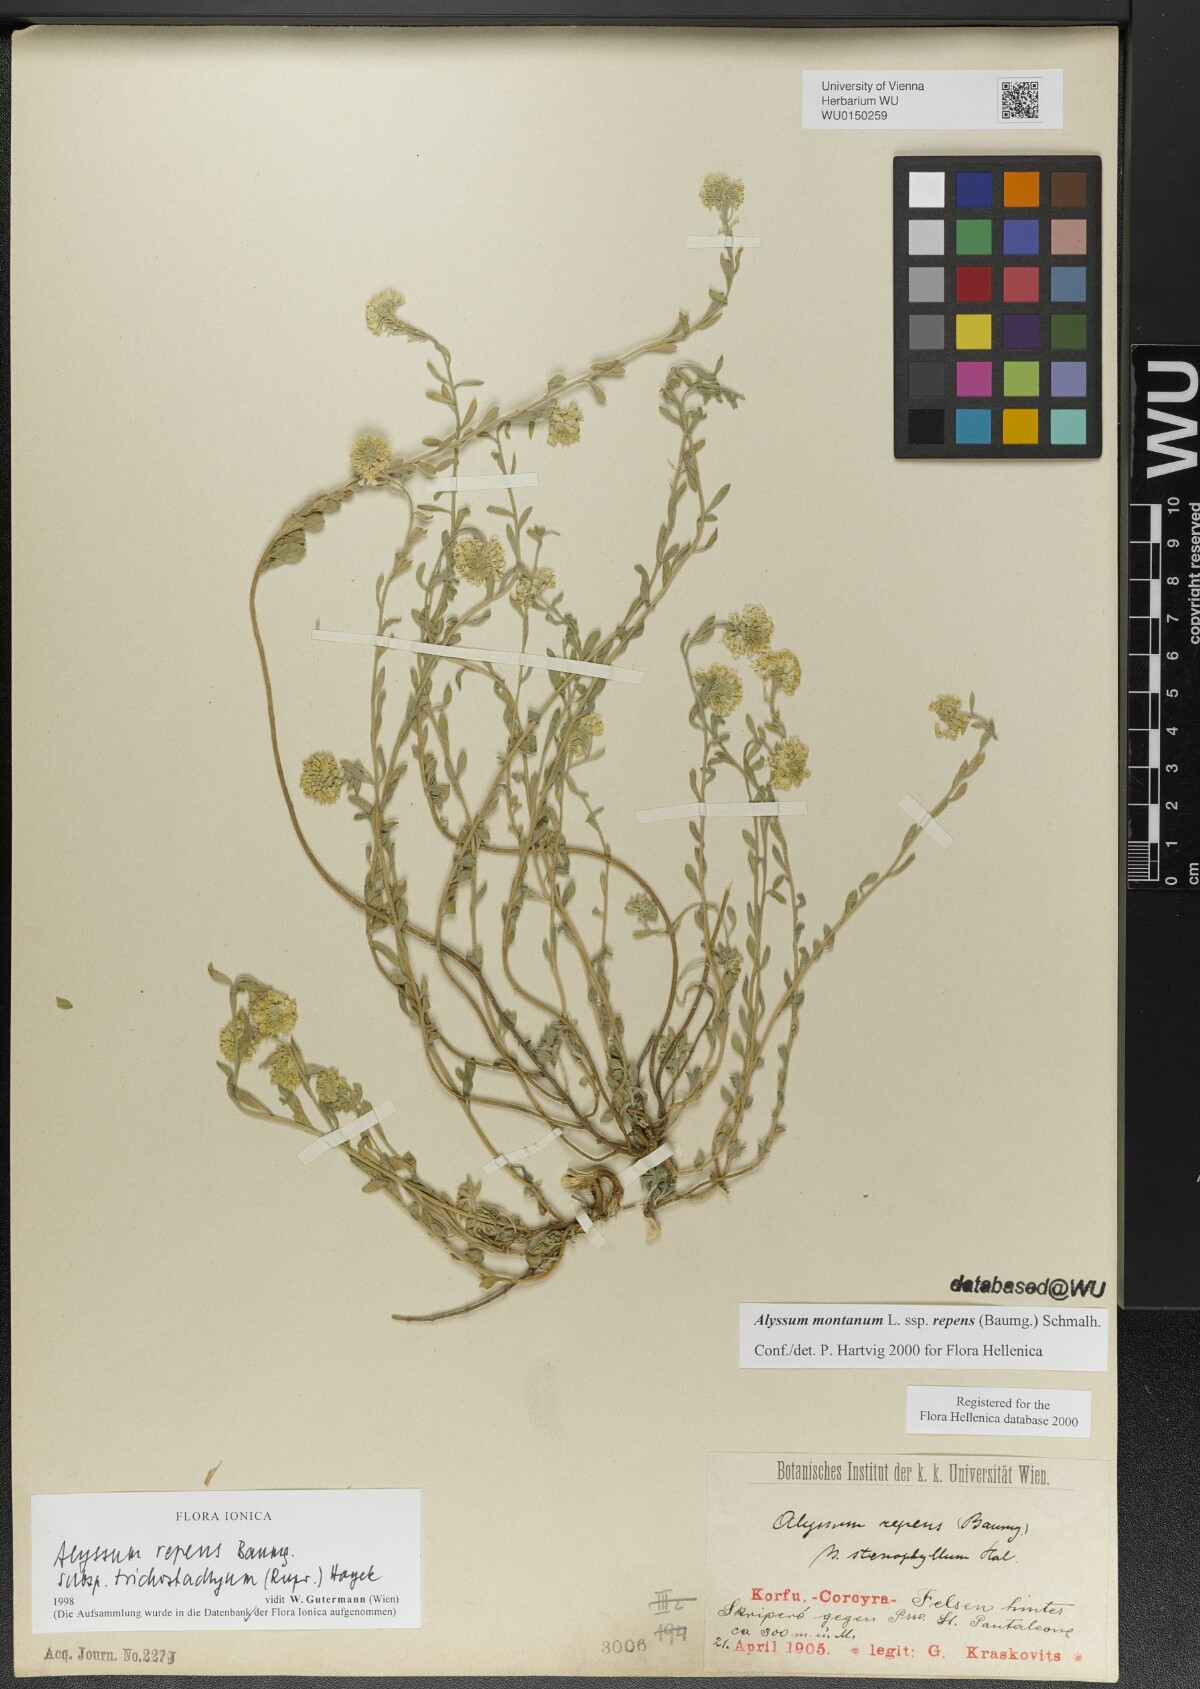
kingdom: Plantae
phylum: Tracheophyta
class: Magnoliopsida
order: Brassicales
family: Brassicaceae
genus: Alyssum
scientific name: Alyssum trichostachyum
